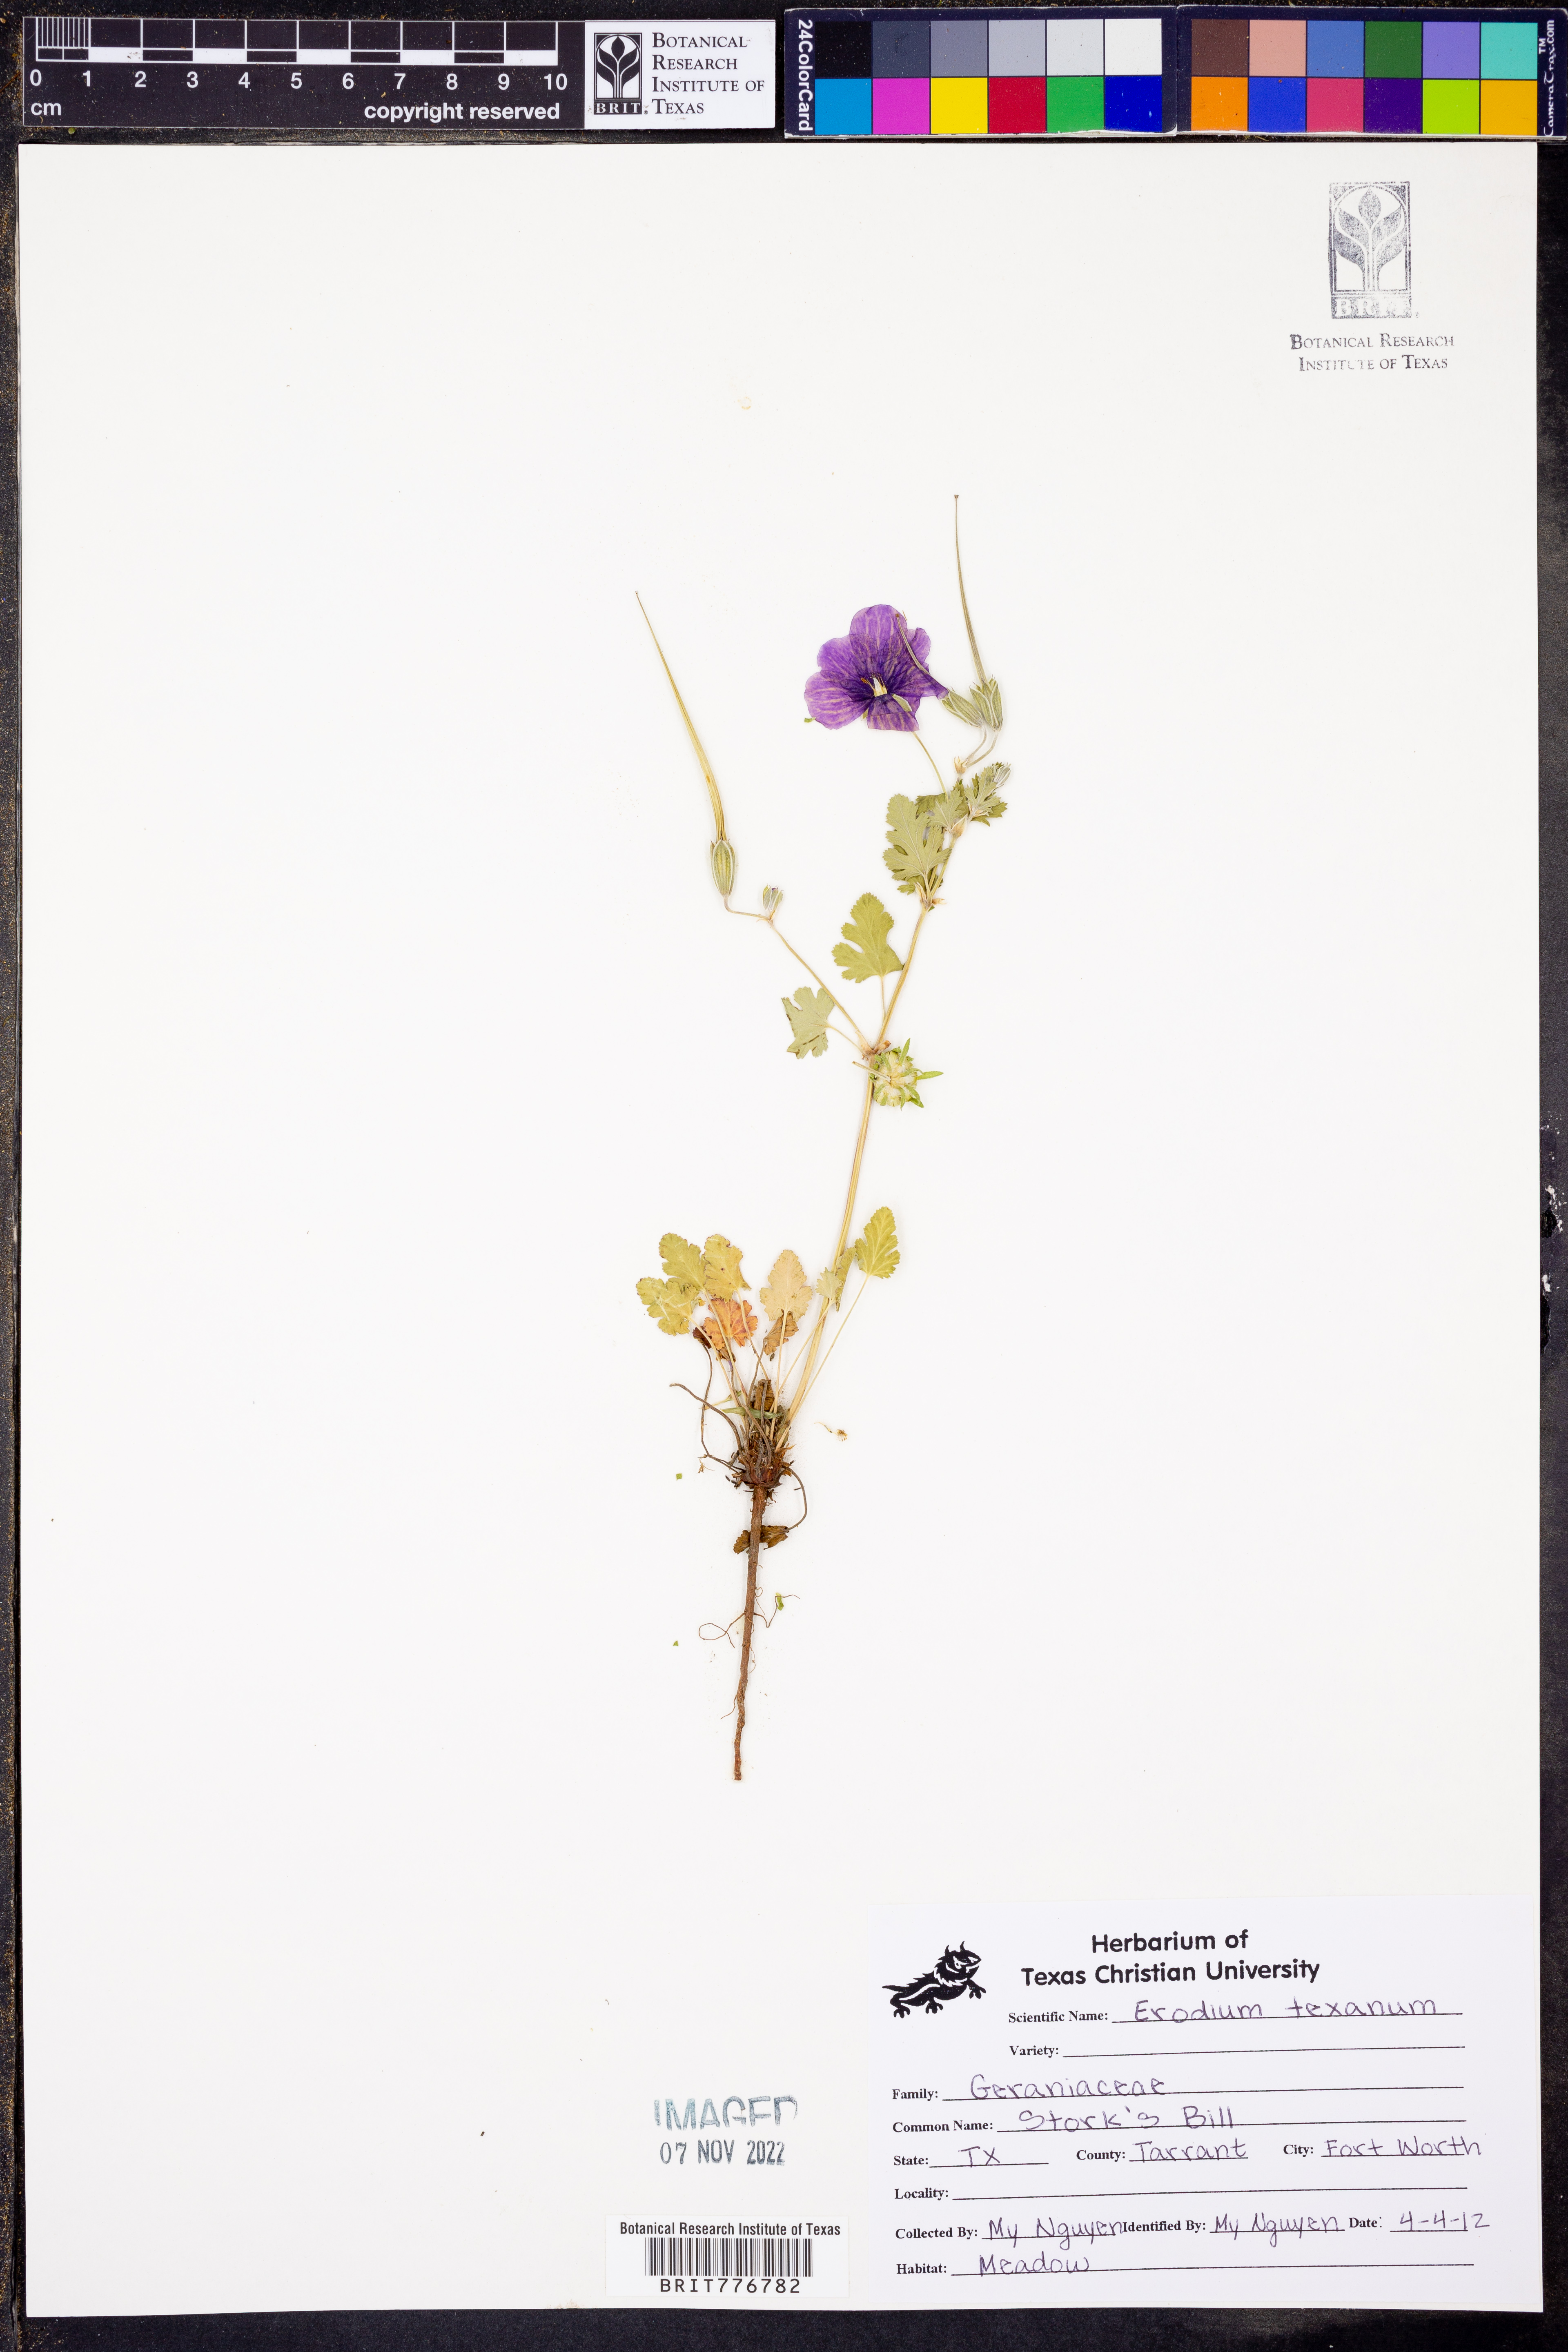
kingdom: Plantae
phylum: Tracheophyta
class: Magnoliopsida
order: Geraniales
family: Geraniaceae
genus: Erodium
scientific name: Erodium texanum
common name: Texas stork's-bill
